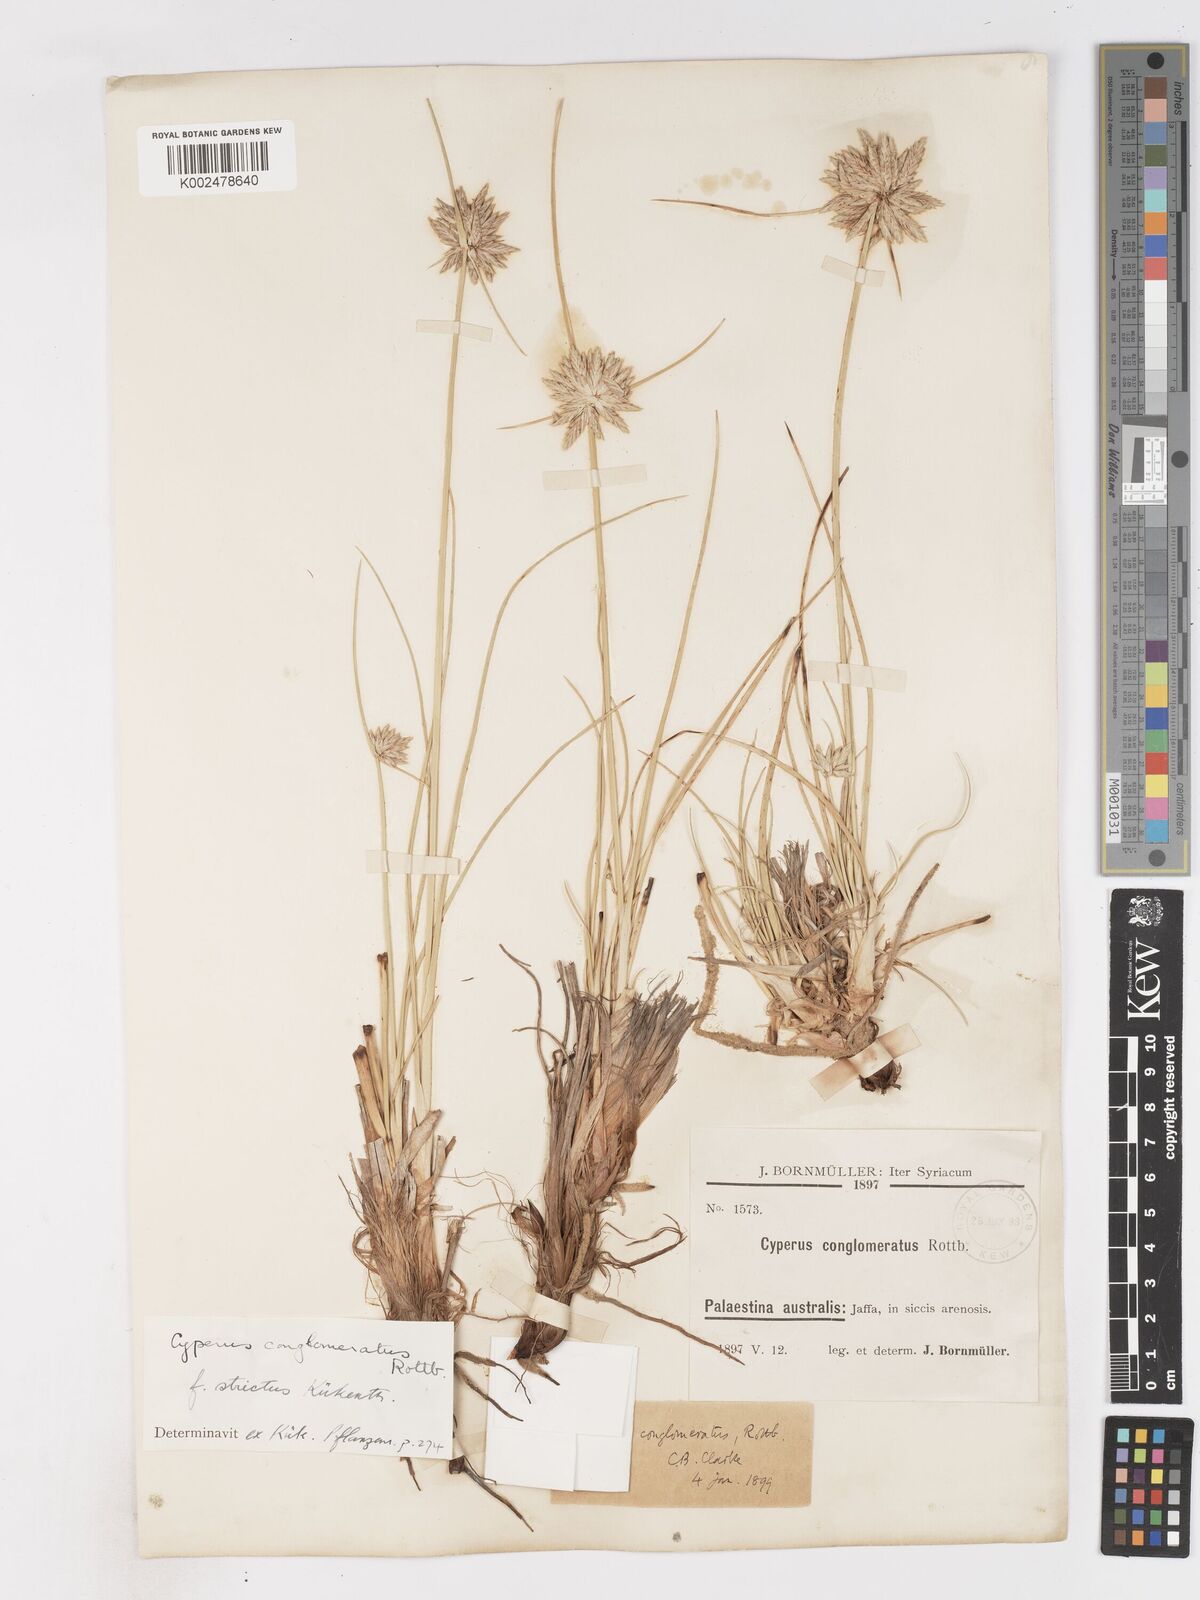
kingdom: Plantae
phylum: Tracheophyta
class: Liliopsida
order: Poales
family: Cyperaceae
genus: Cyperus
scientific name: Cyperus conglomeratus
